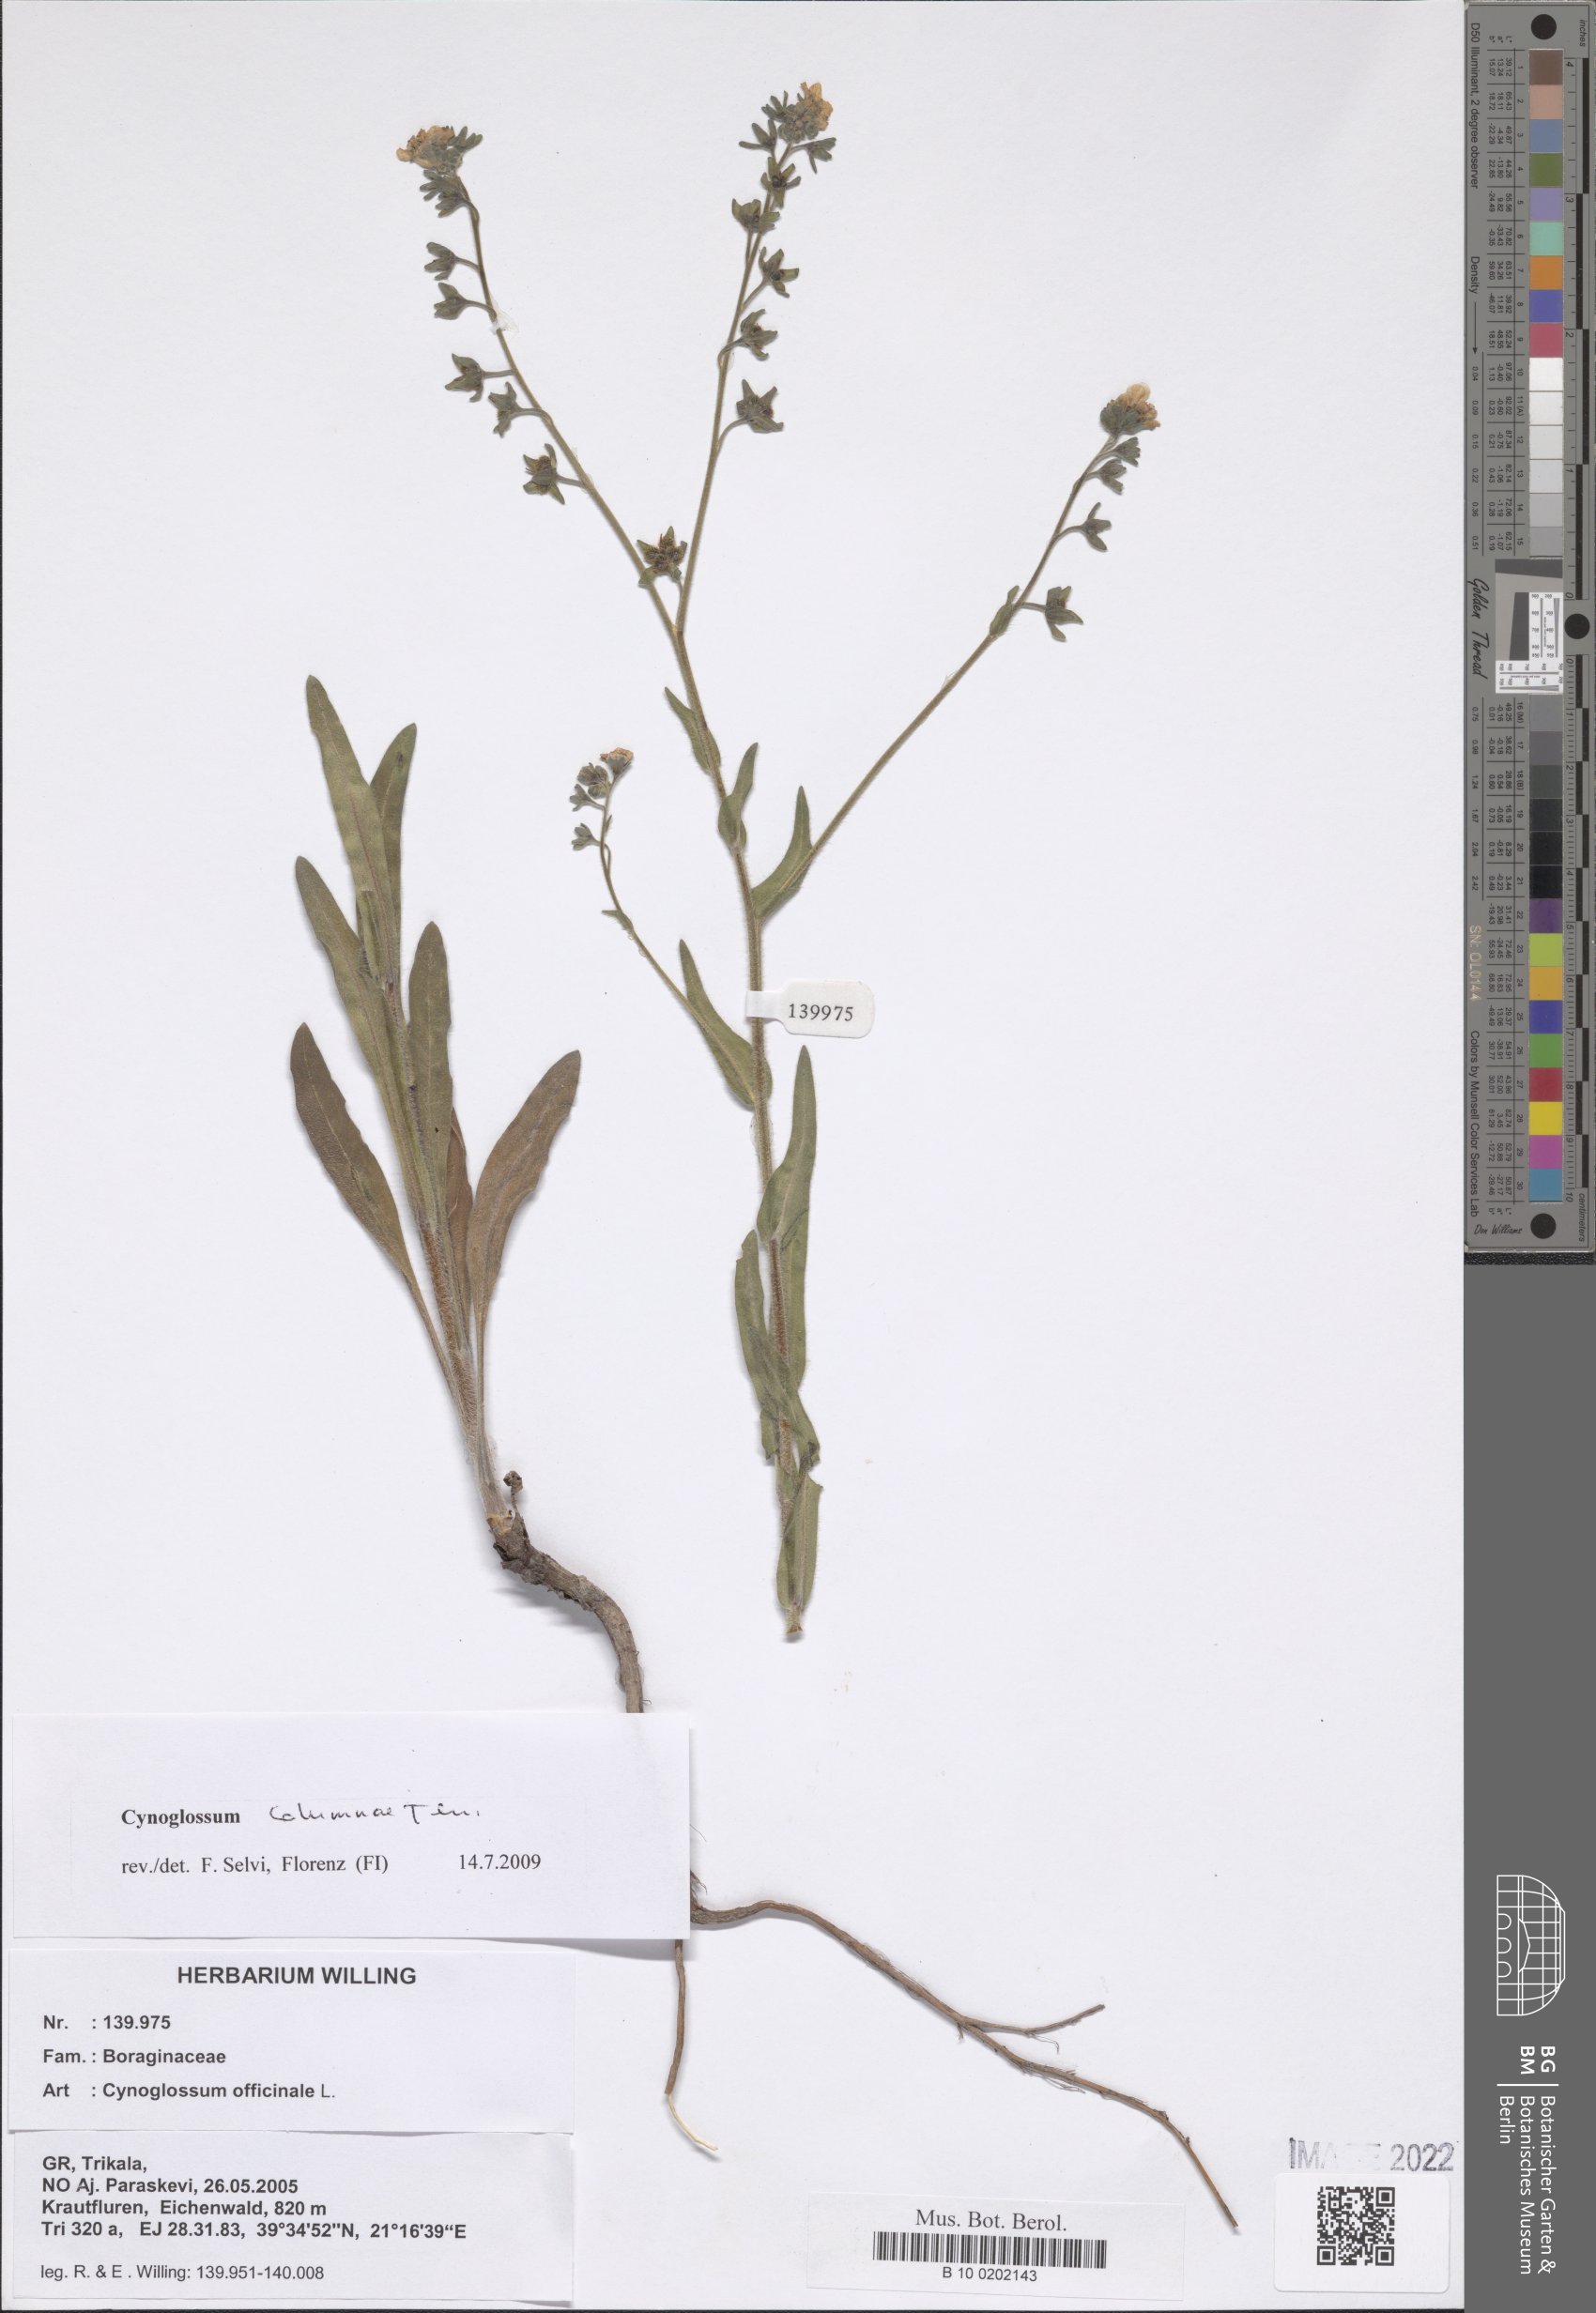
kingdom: Plantae
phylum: Tracheophyta
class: Magnoliopsida
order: Boraginales
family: Boraginaceae
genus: Rindera
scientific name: Rindera columnae
